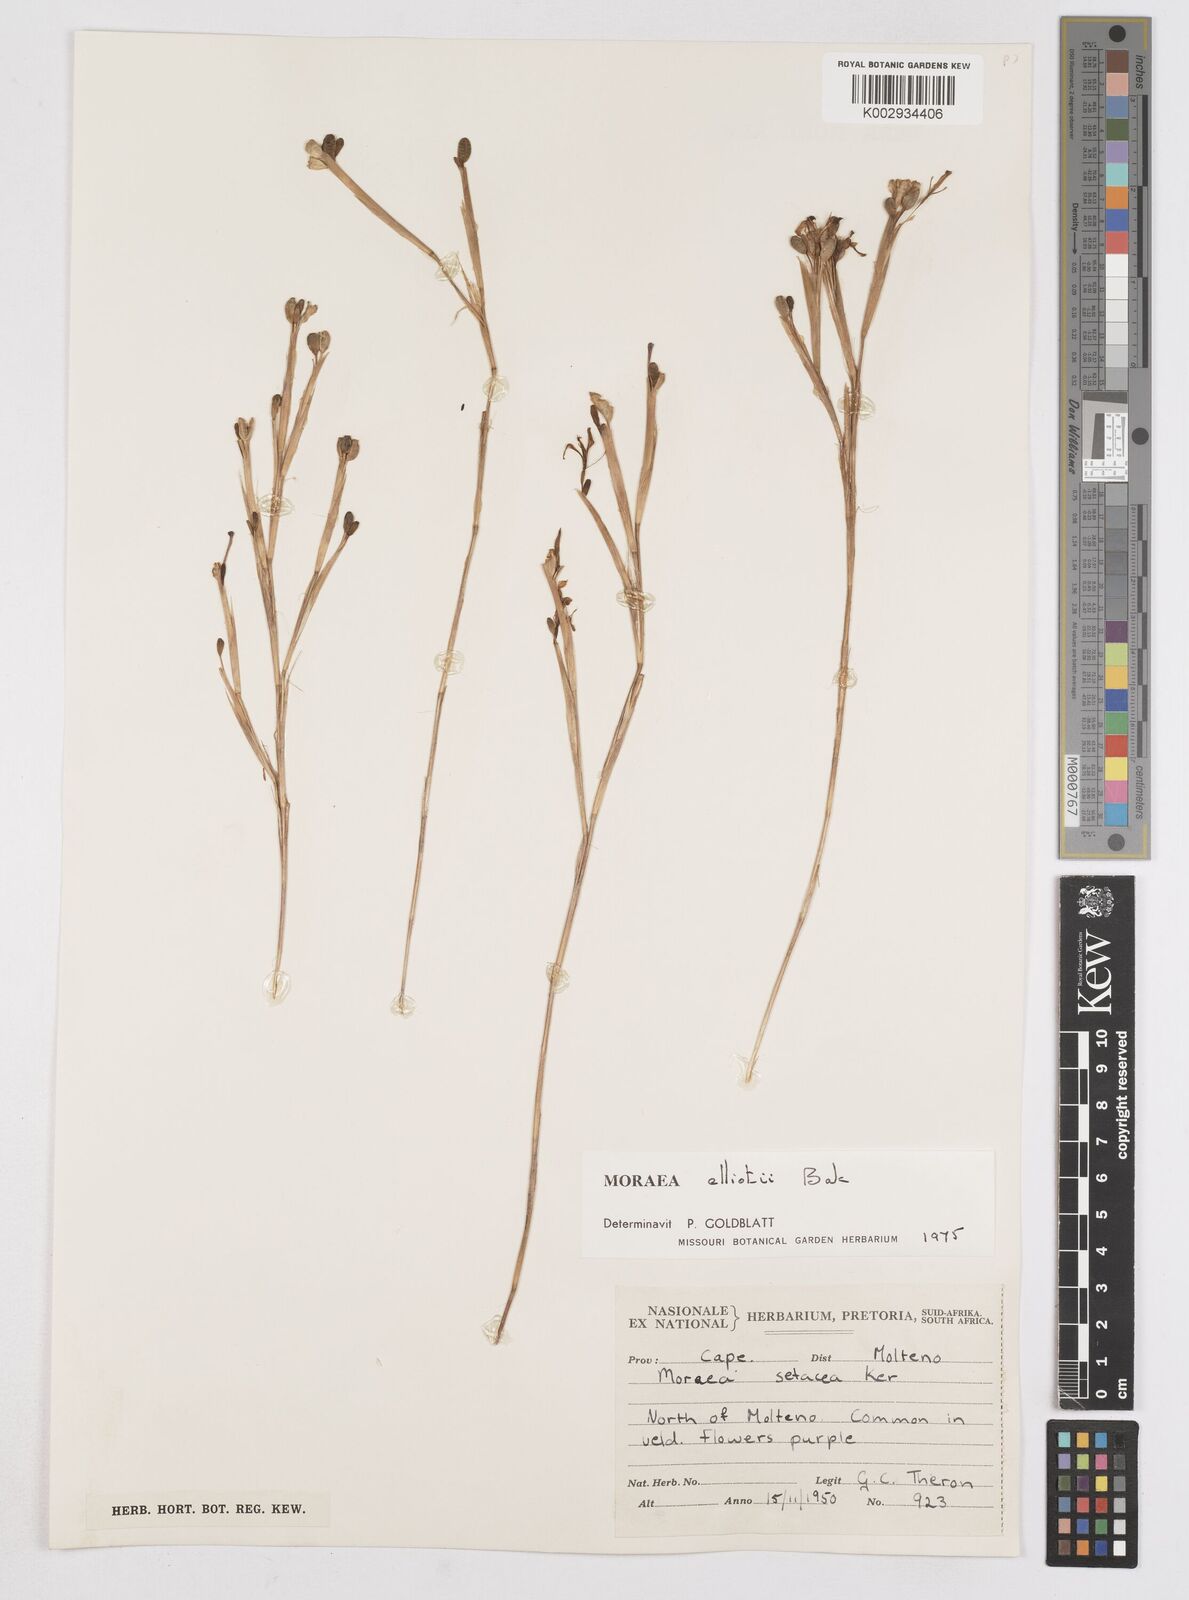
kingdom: Plantae
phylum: Tracheophyta
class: Liliopsida
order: Asparagales
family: Iridaceae
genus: Moraea
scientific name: Moraea elliotii
